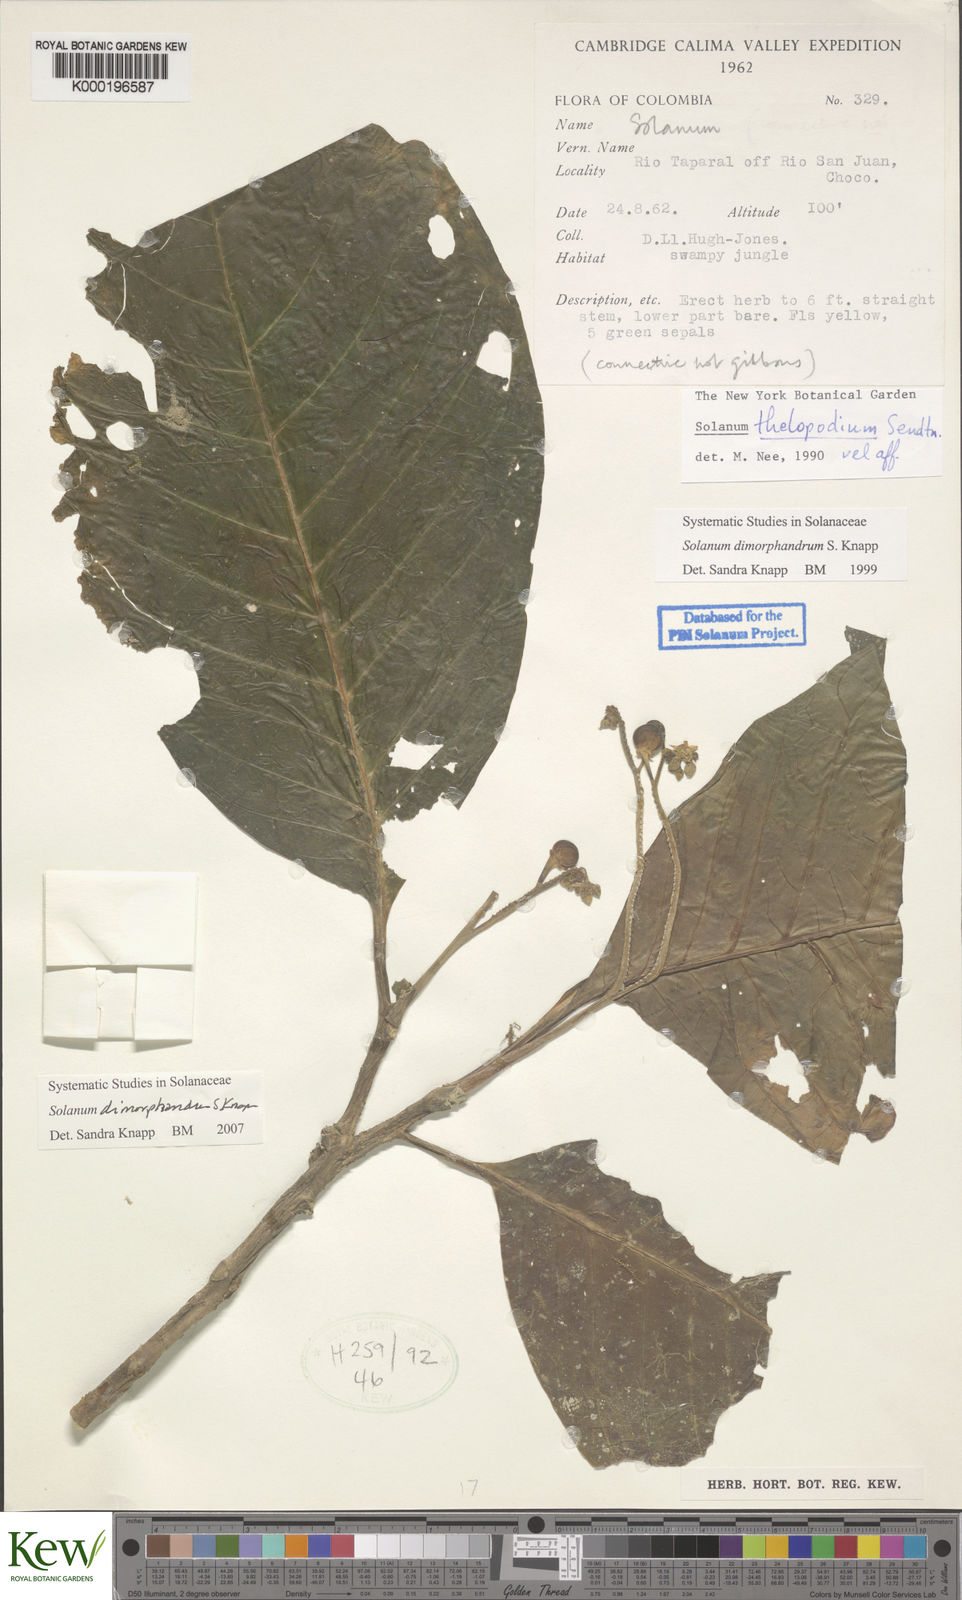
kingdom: Plantae
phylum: Tracheophyta
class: Magnoliopsida
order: Solanales
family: Solanaceae
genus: Solanum
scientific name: Solanum dimorphandrum
